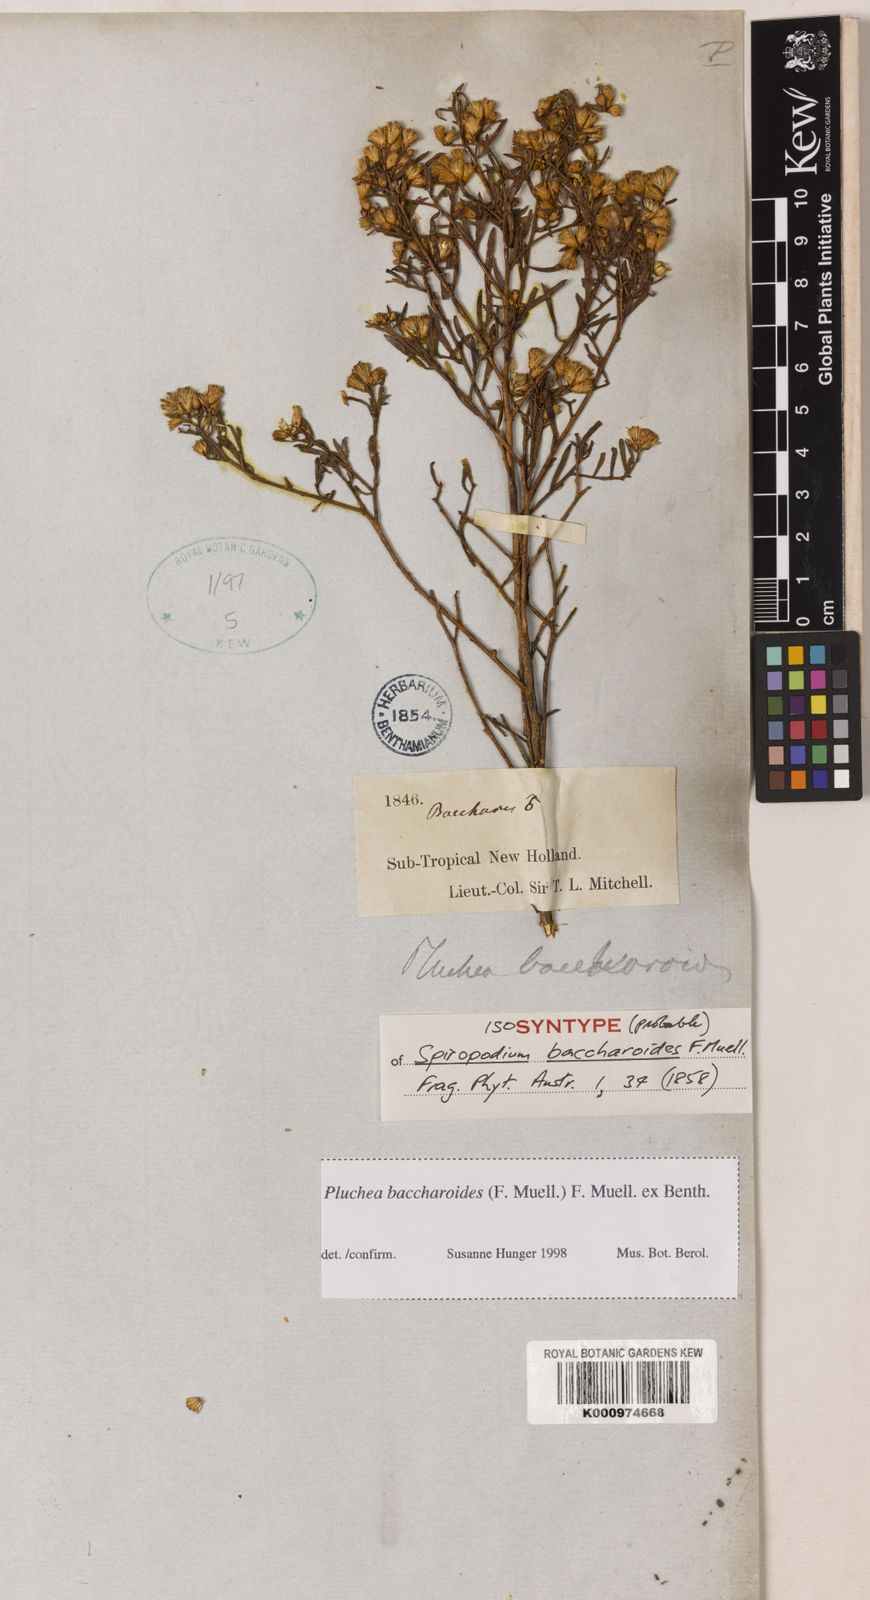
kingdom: Plantae
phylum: Tracheophyta
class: Magnoliopsida
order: Asterales
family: Asteraceae
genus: Pluchea
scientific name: Pluchea baccharioides
